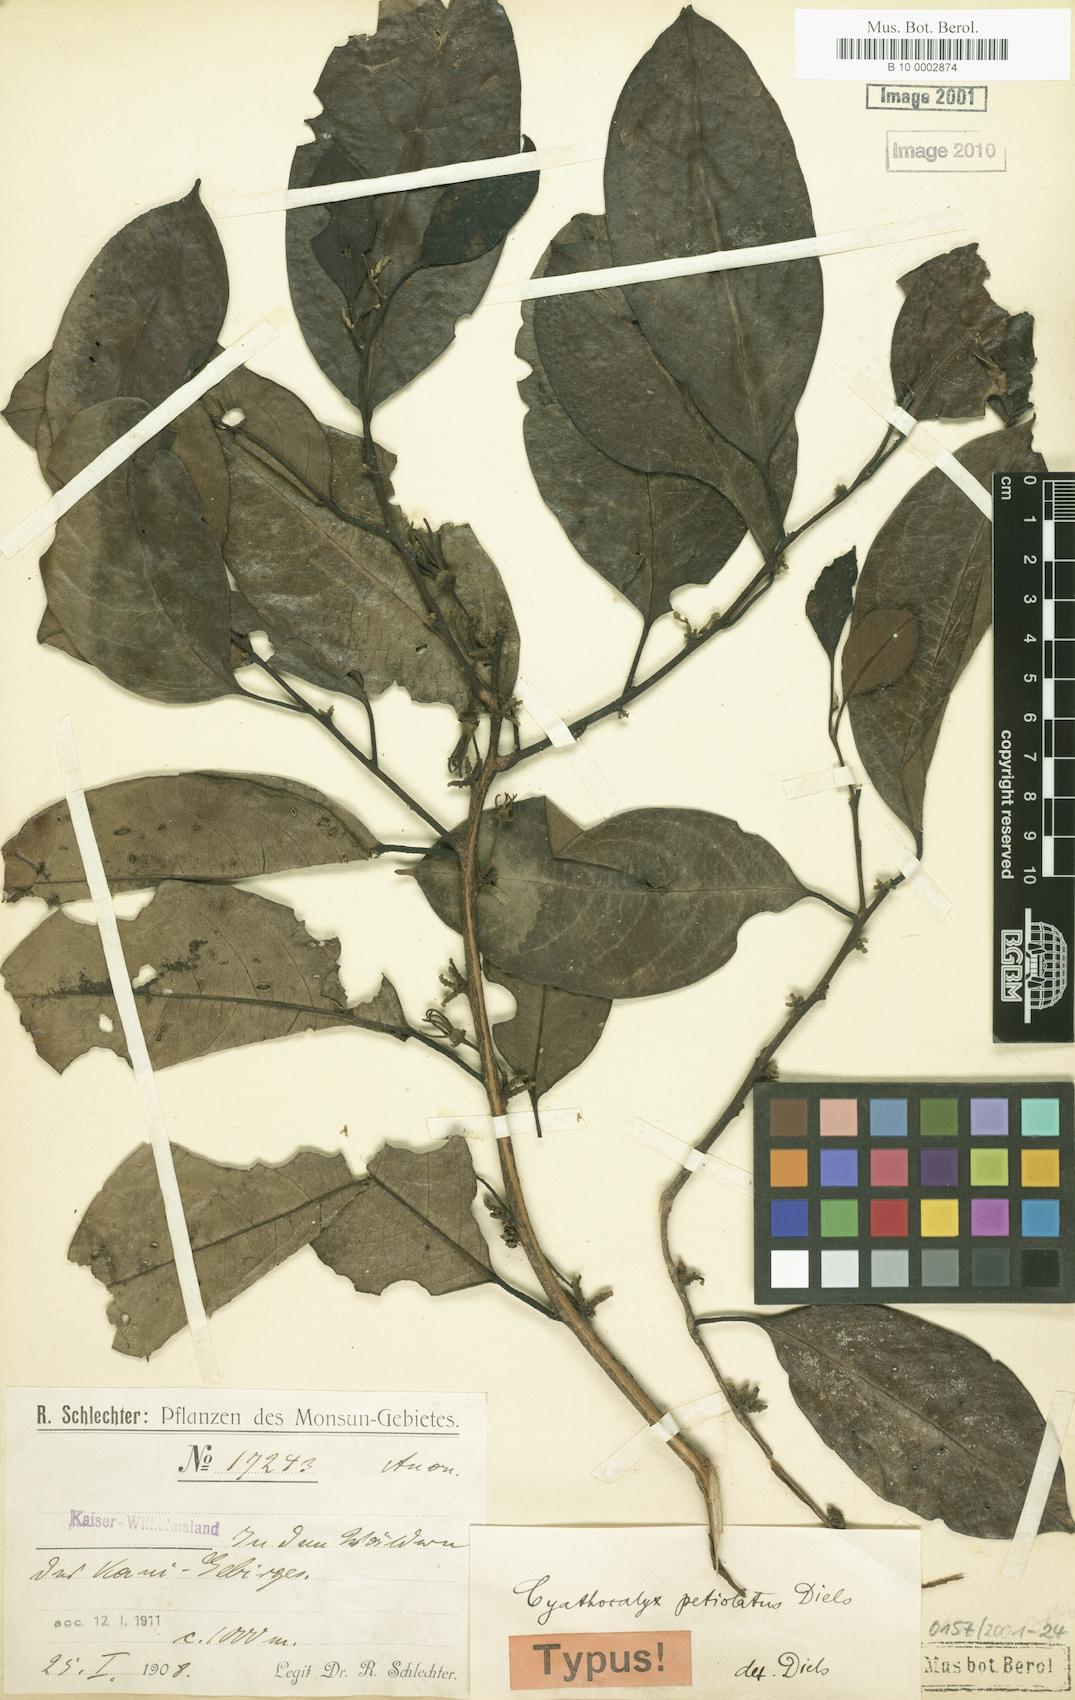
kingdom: Plantae
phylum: Tracheophyta
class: Magnoliopsida
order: Magnoliales
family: Annonaceae
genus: Drepananthus
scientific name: Drepananthus petiolatus
